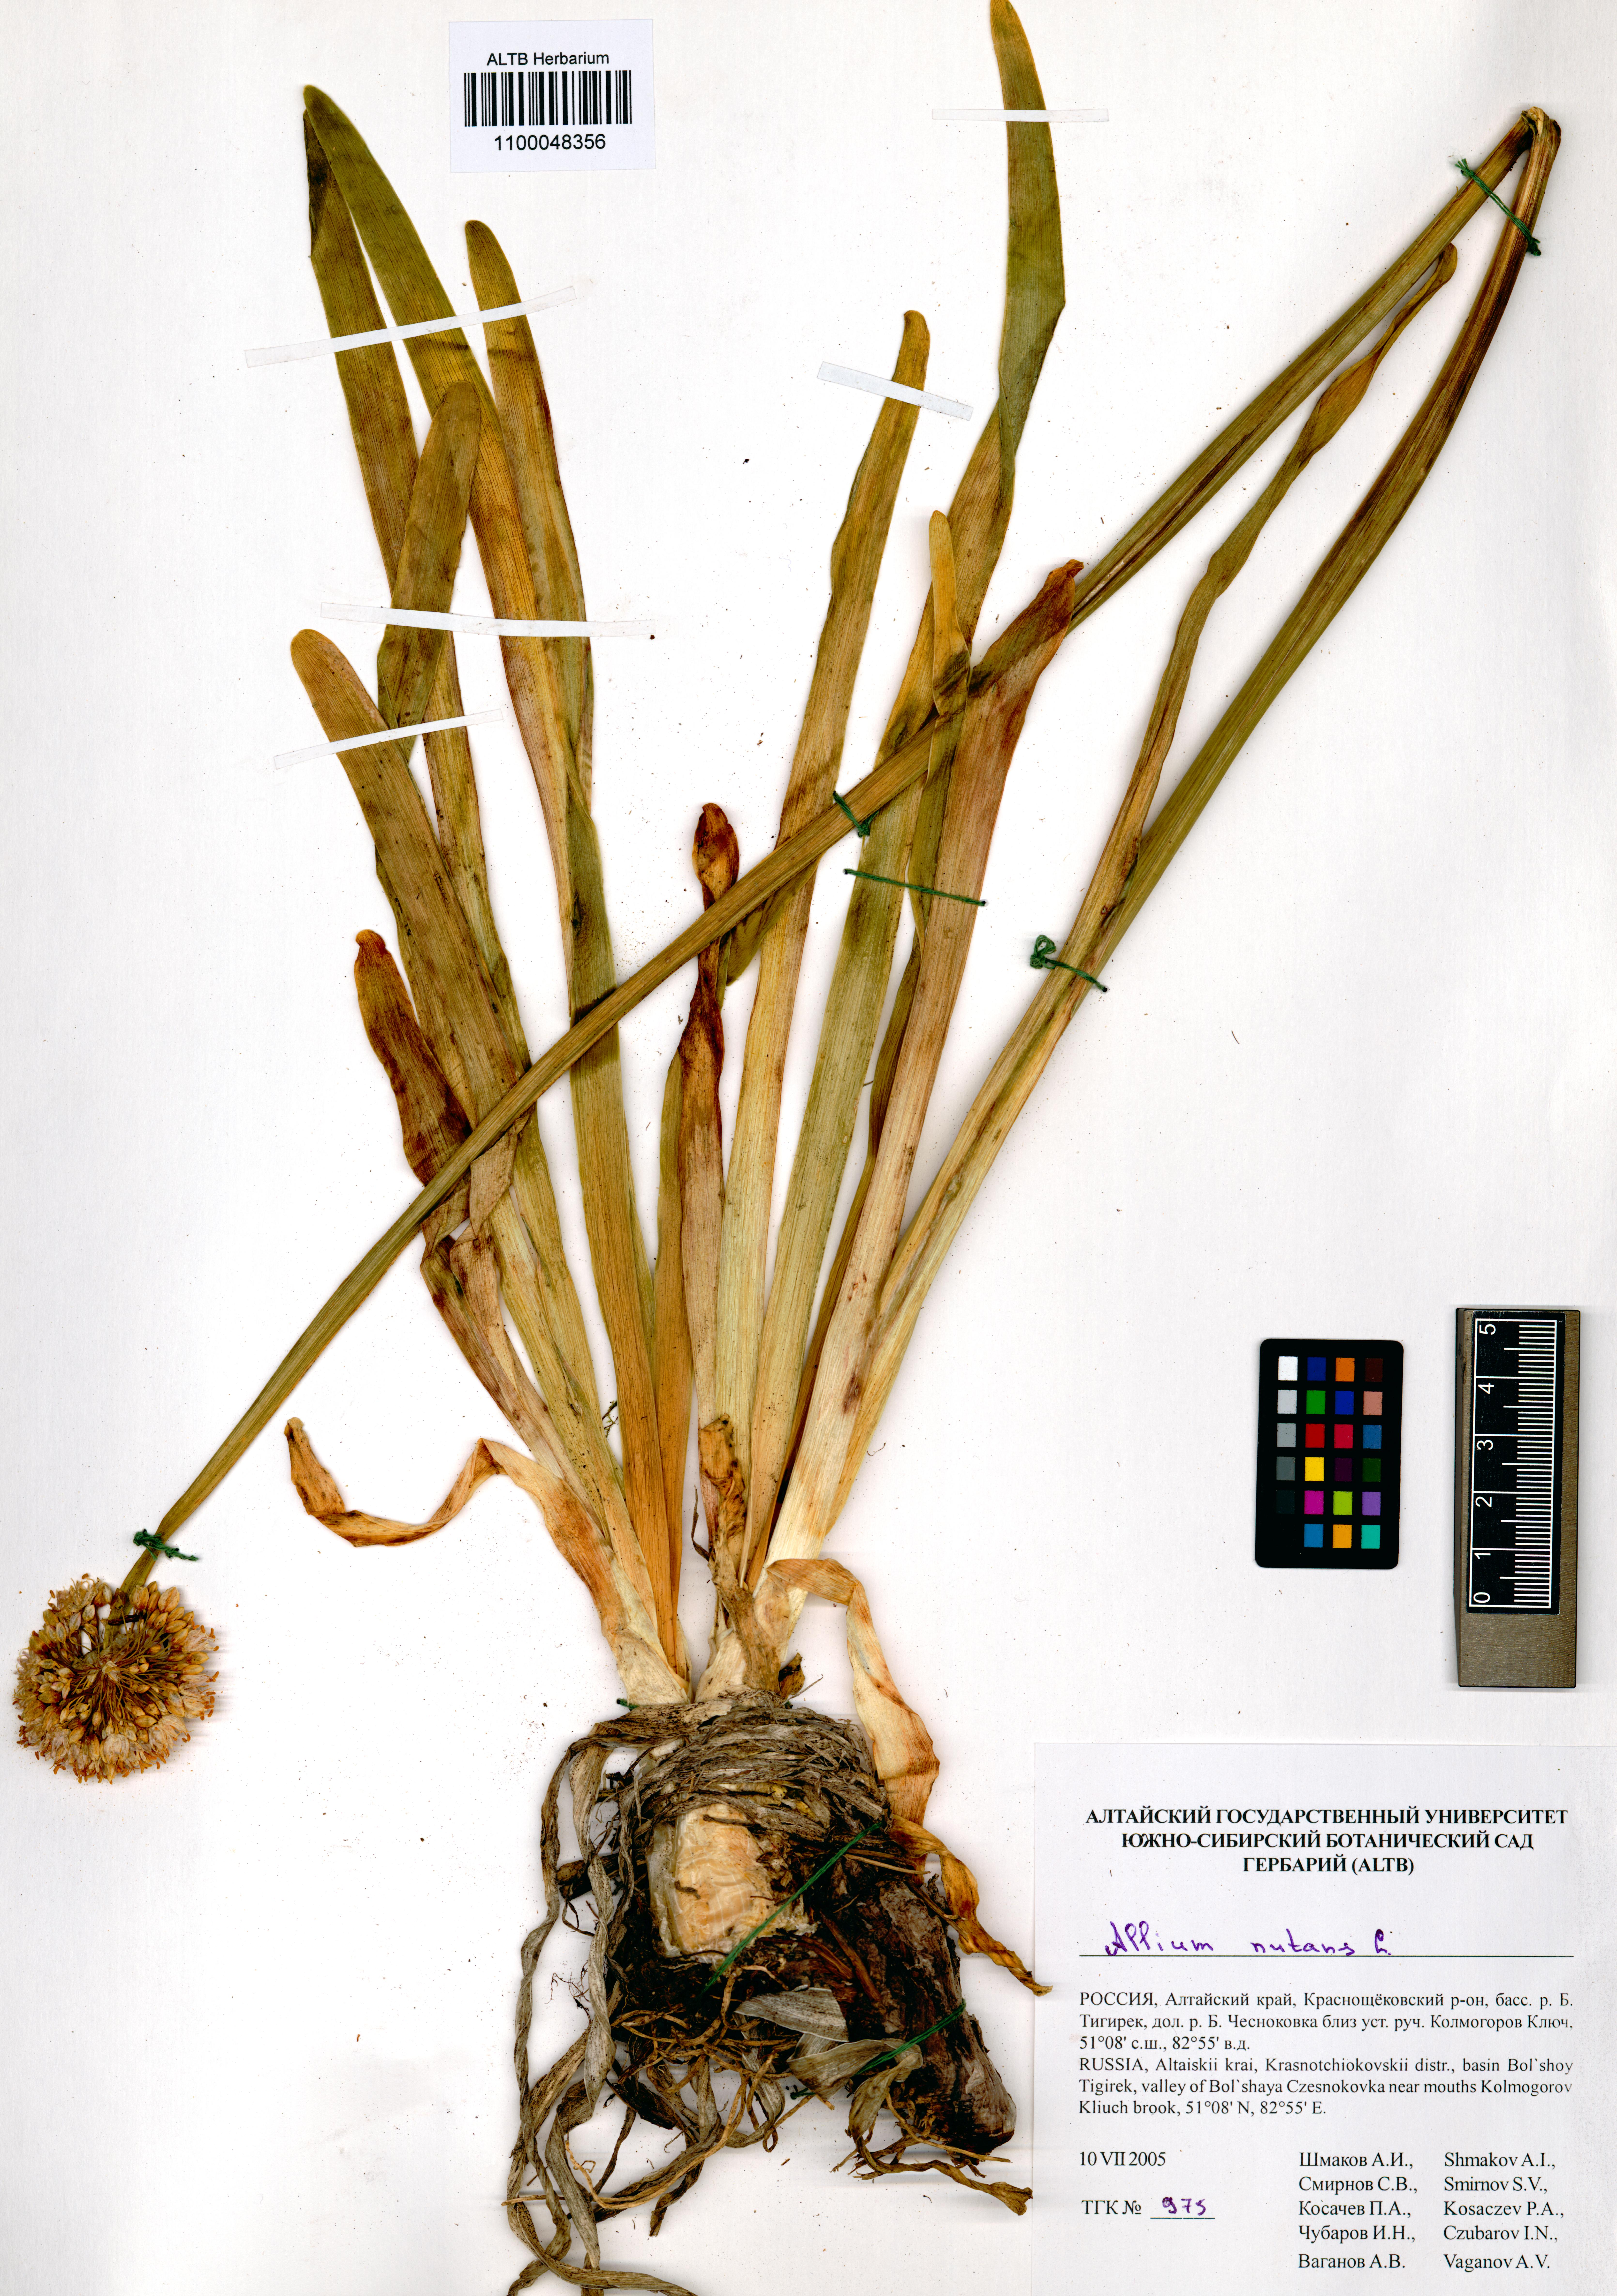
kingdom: Plantae
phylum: Tracheophyta
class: Liliopsida
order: Asparagales
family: Amaryllidaceae
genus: Allium
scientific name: Allium nutans
